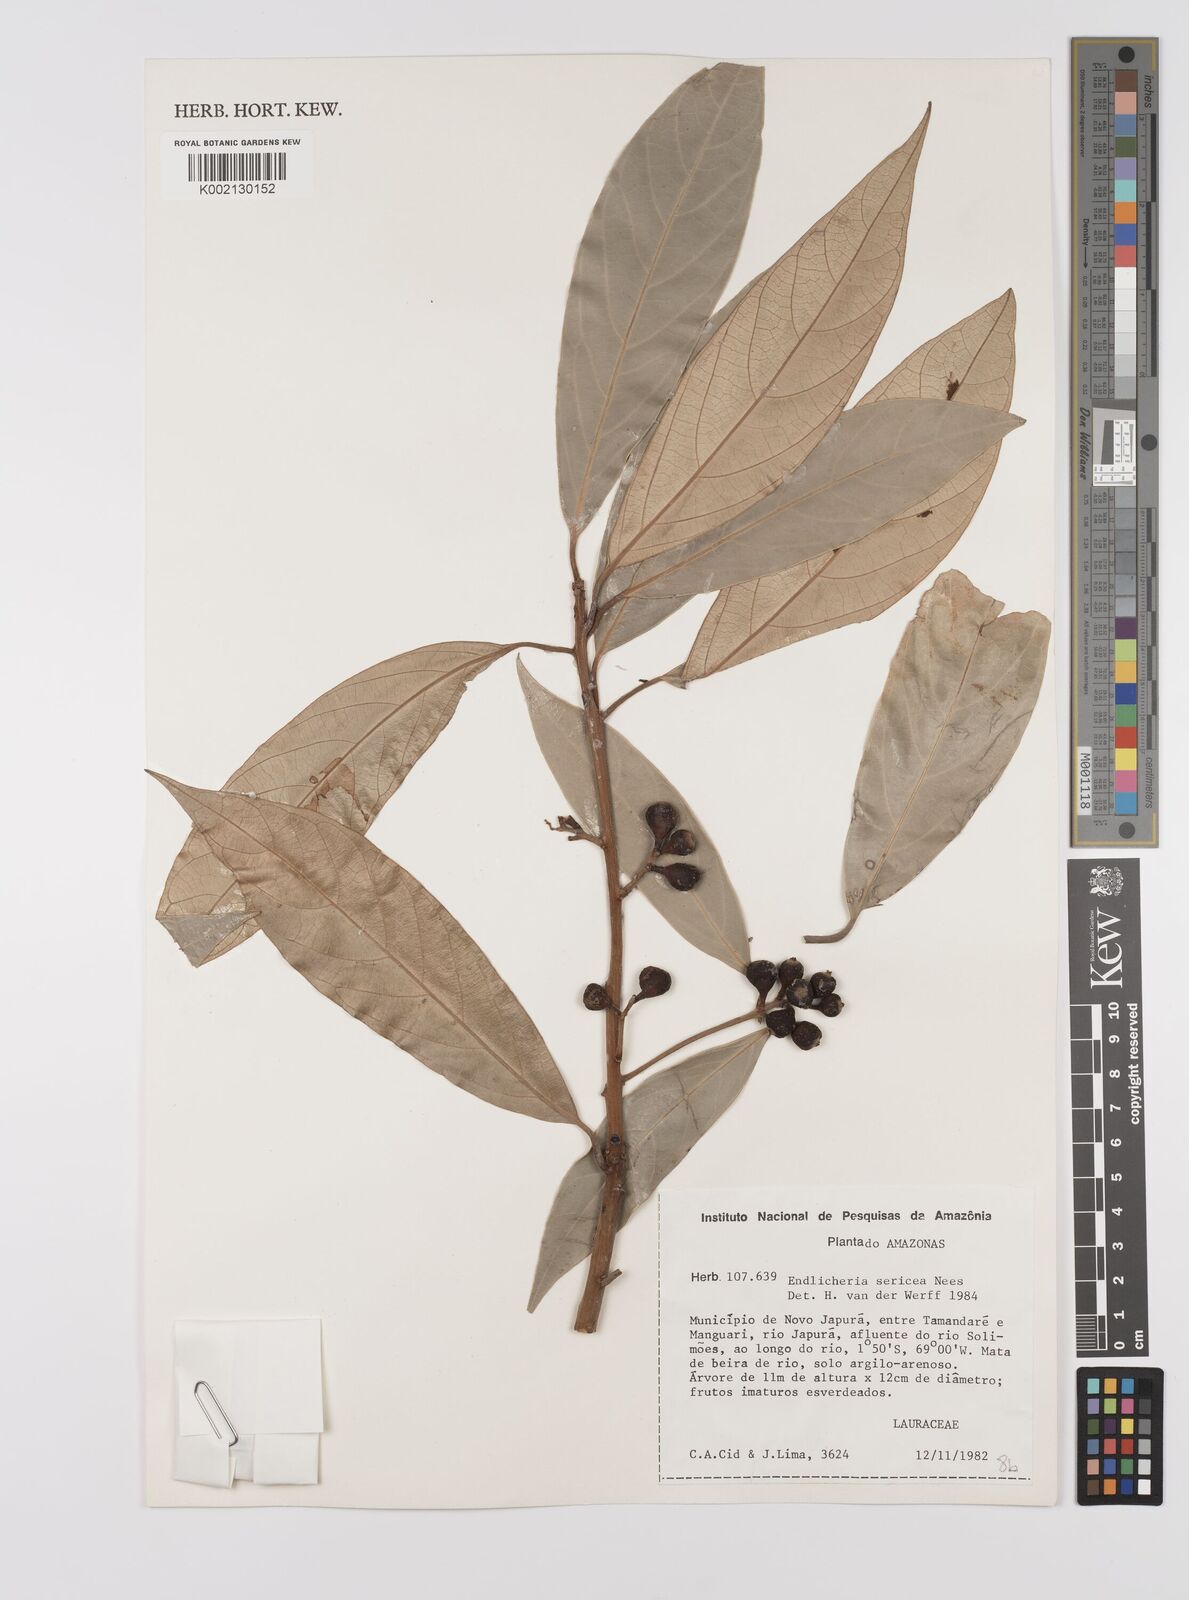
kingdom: Plantae
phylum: Tracheophyta
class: Magnoliopsida
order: Laurales
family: Lauraceae
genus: Endlicheria
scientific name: Endlicheria sericea
